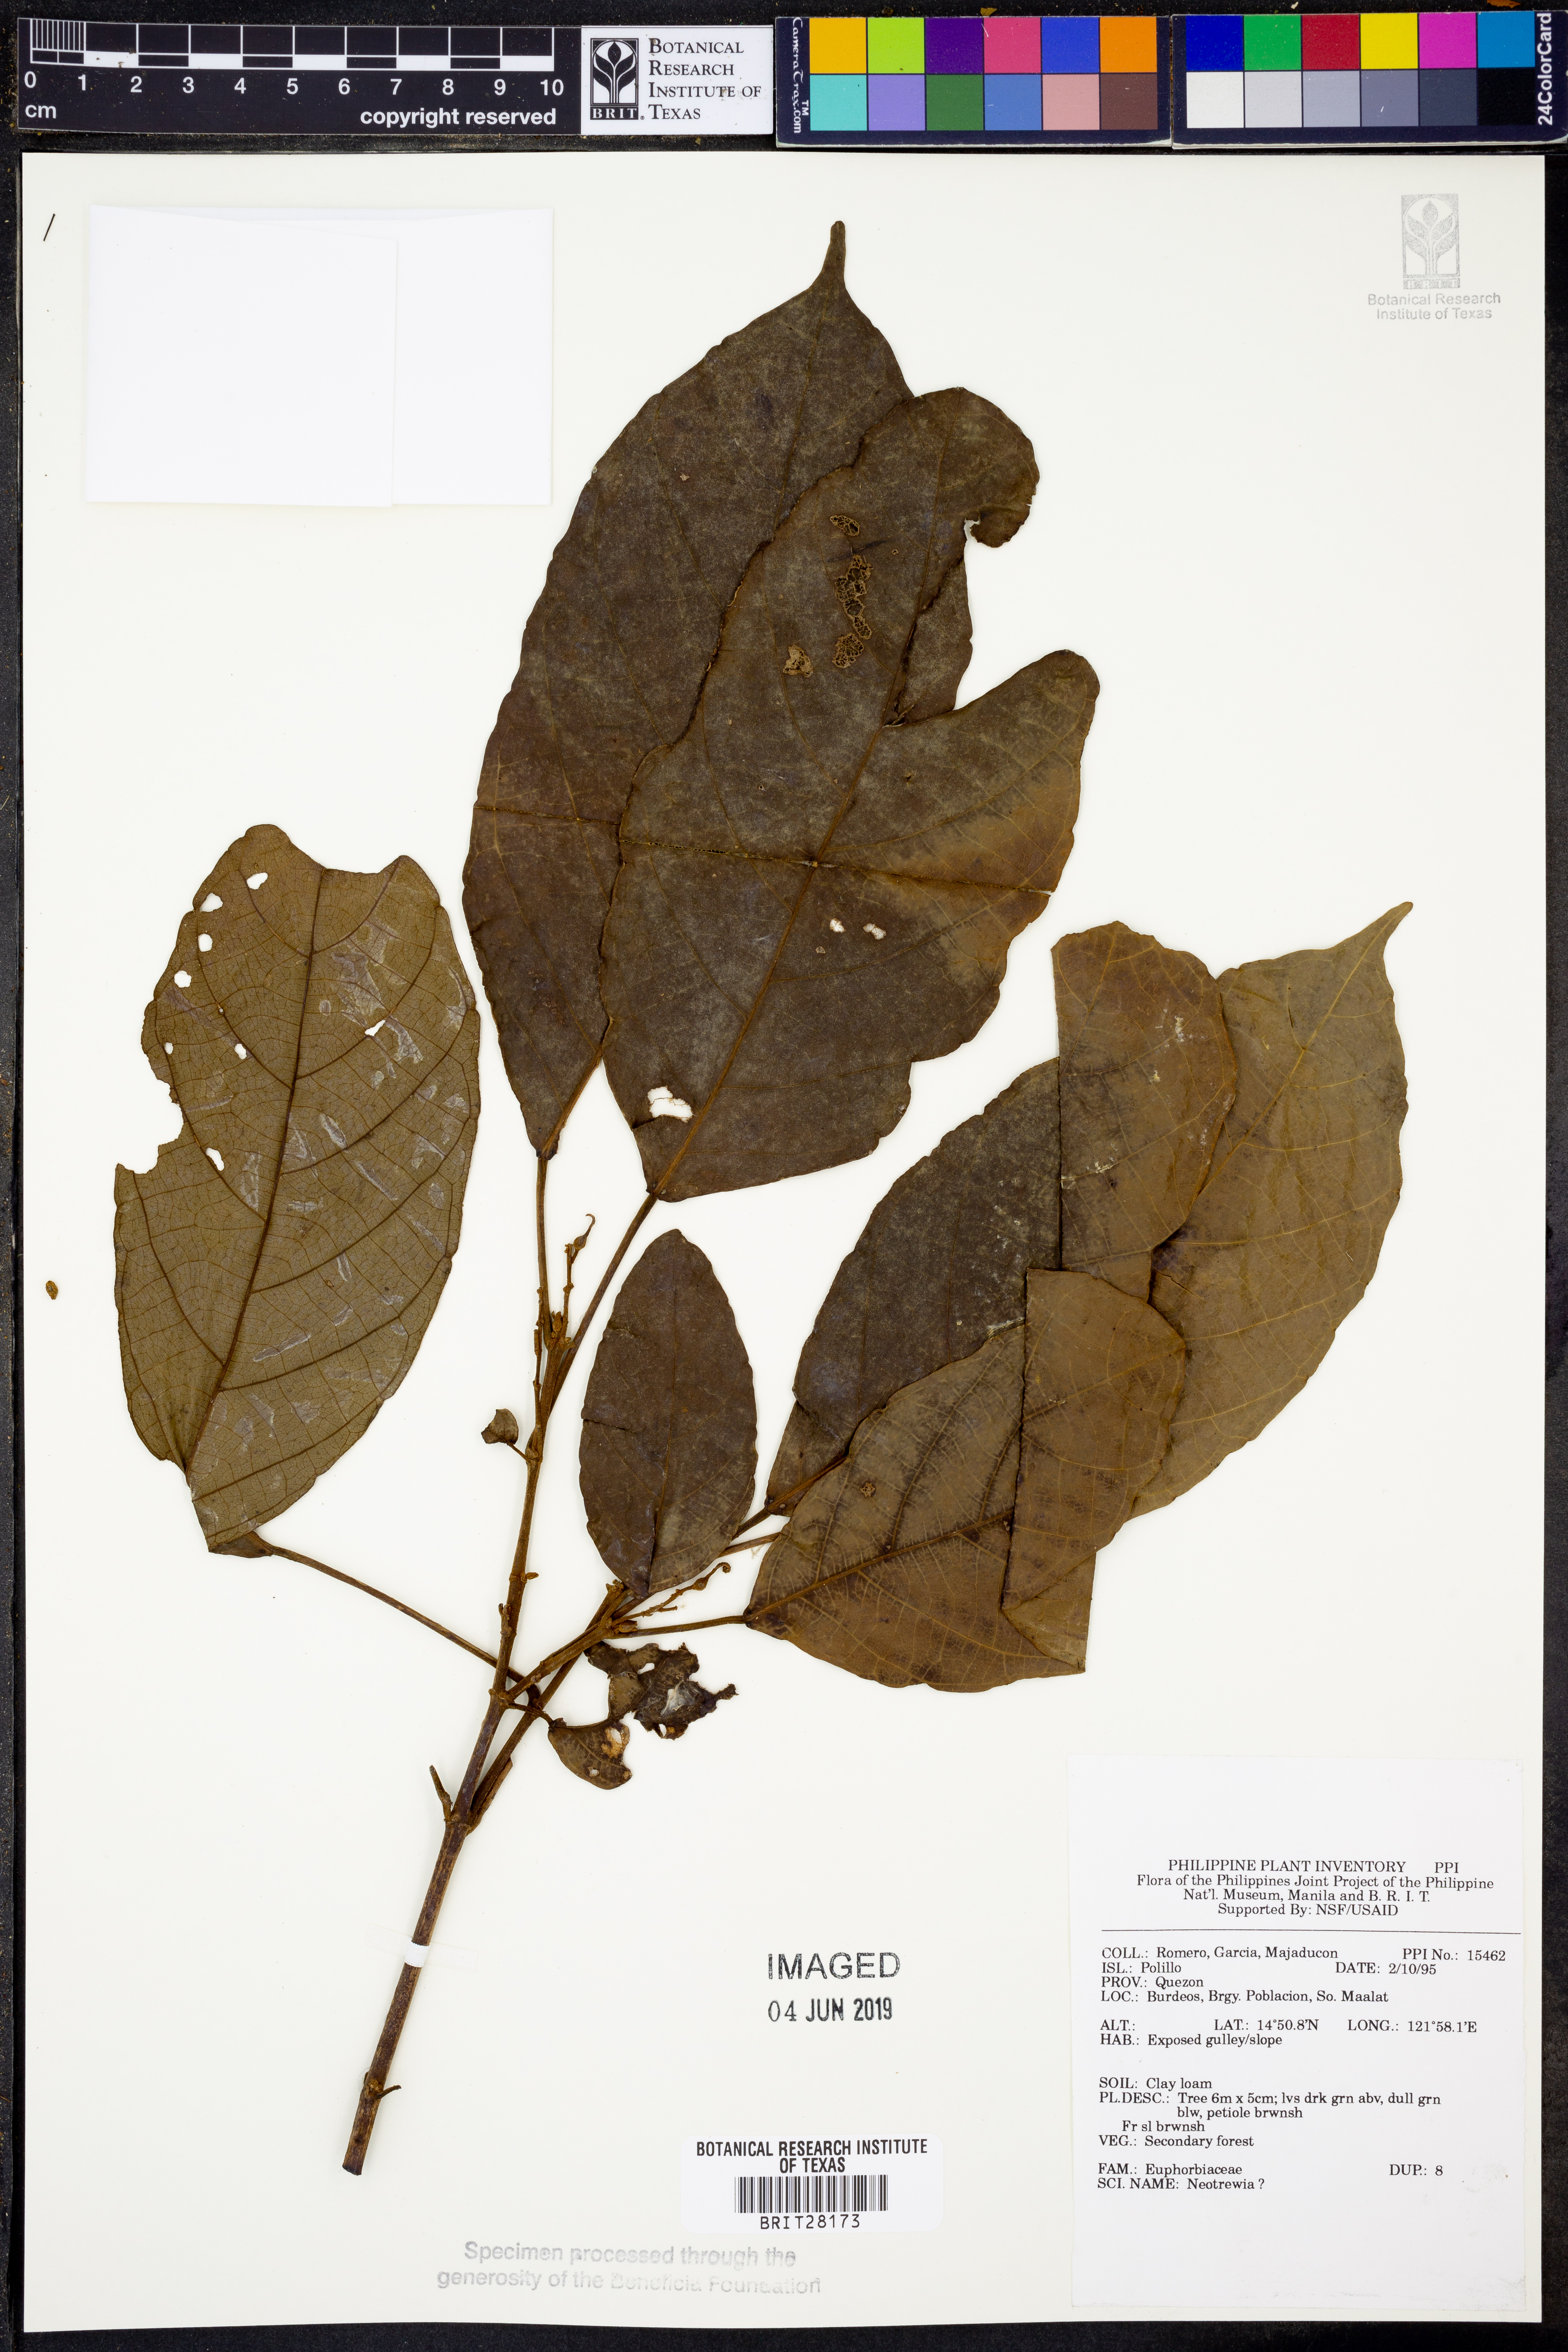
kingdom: Plantae
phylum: Tracheophyta
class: Magnoliopsida
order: Malpighiales
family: Euphorbiaceae
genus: Mallotus
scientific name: Mallotus
